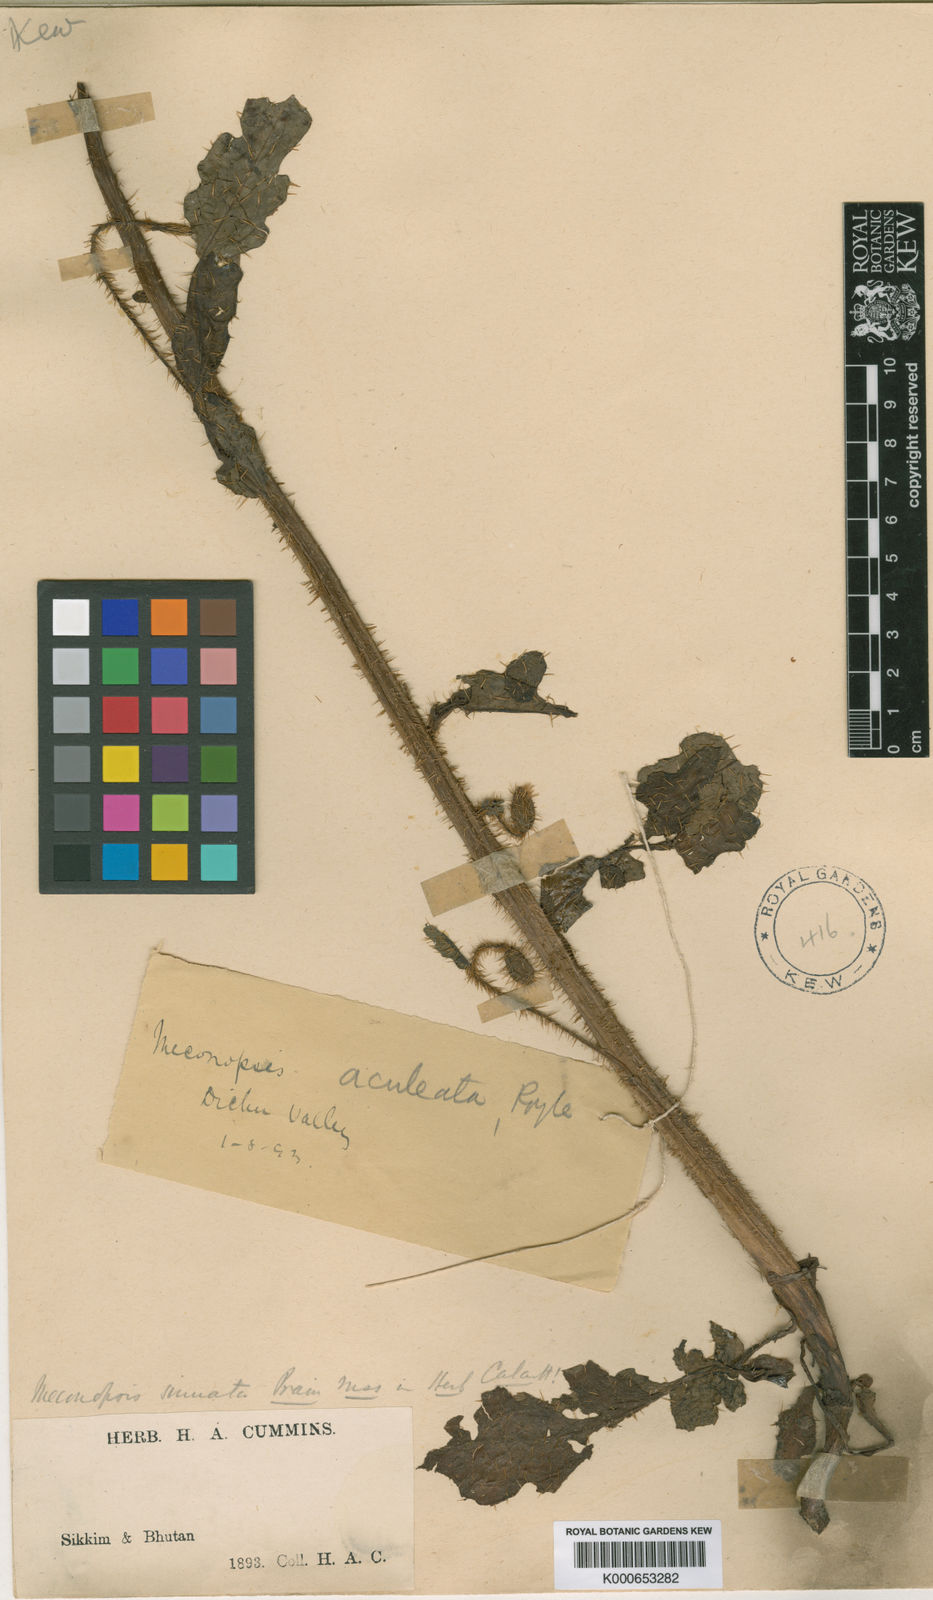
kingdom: Plantae
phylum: Tracheophyta
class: Magnoliopsida
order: Ranunculales
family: Papaveraceae
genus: Meconopsis
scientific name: Meconopsis sinuata
